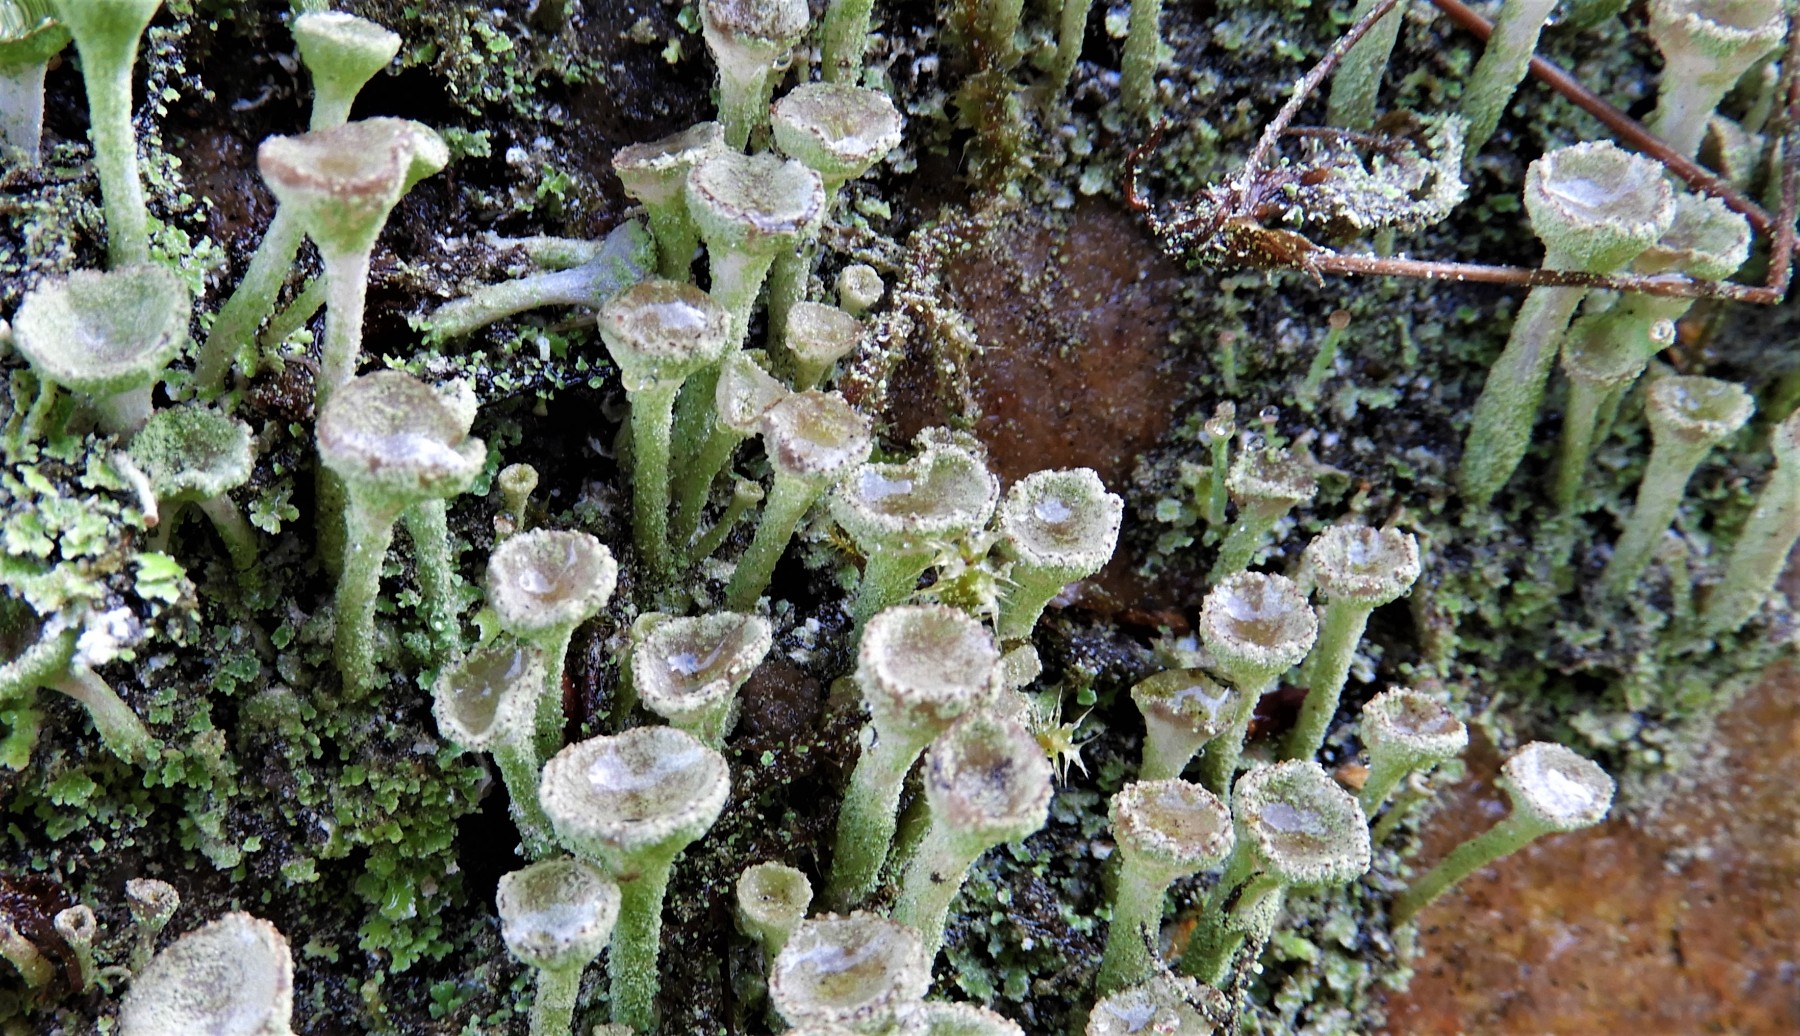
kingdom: Fungi
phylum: Ascomycota
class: Lecanoromycetes
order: Lecanorales
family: Cladoniaceae
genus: Cladonia
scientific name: Cladonia
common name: brungrøn bægerlav
